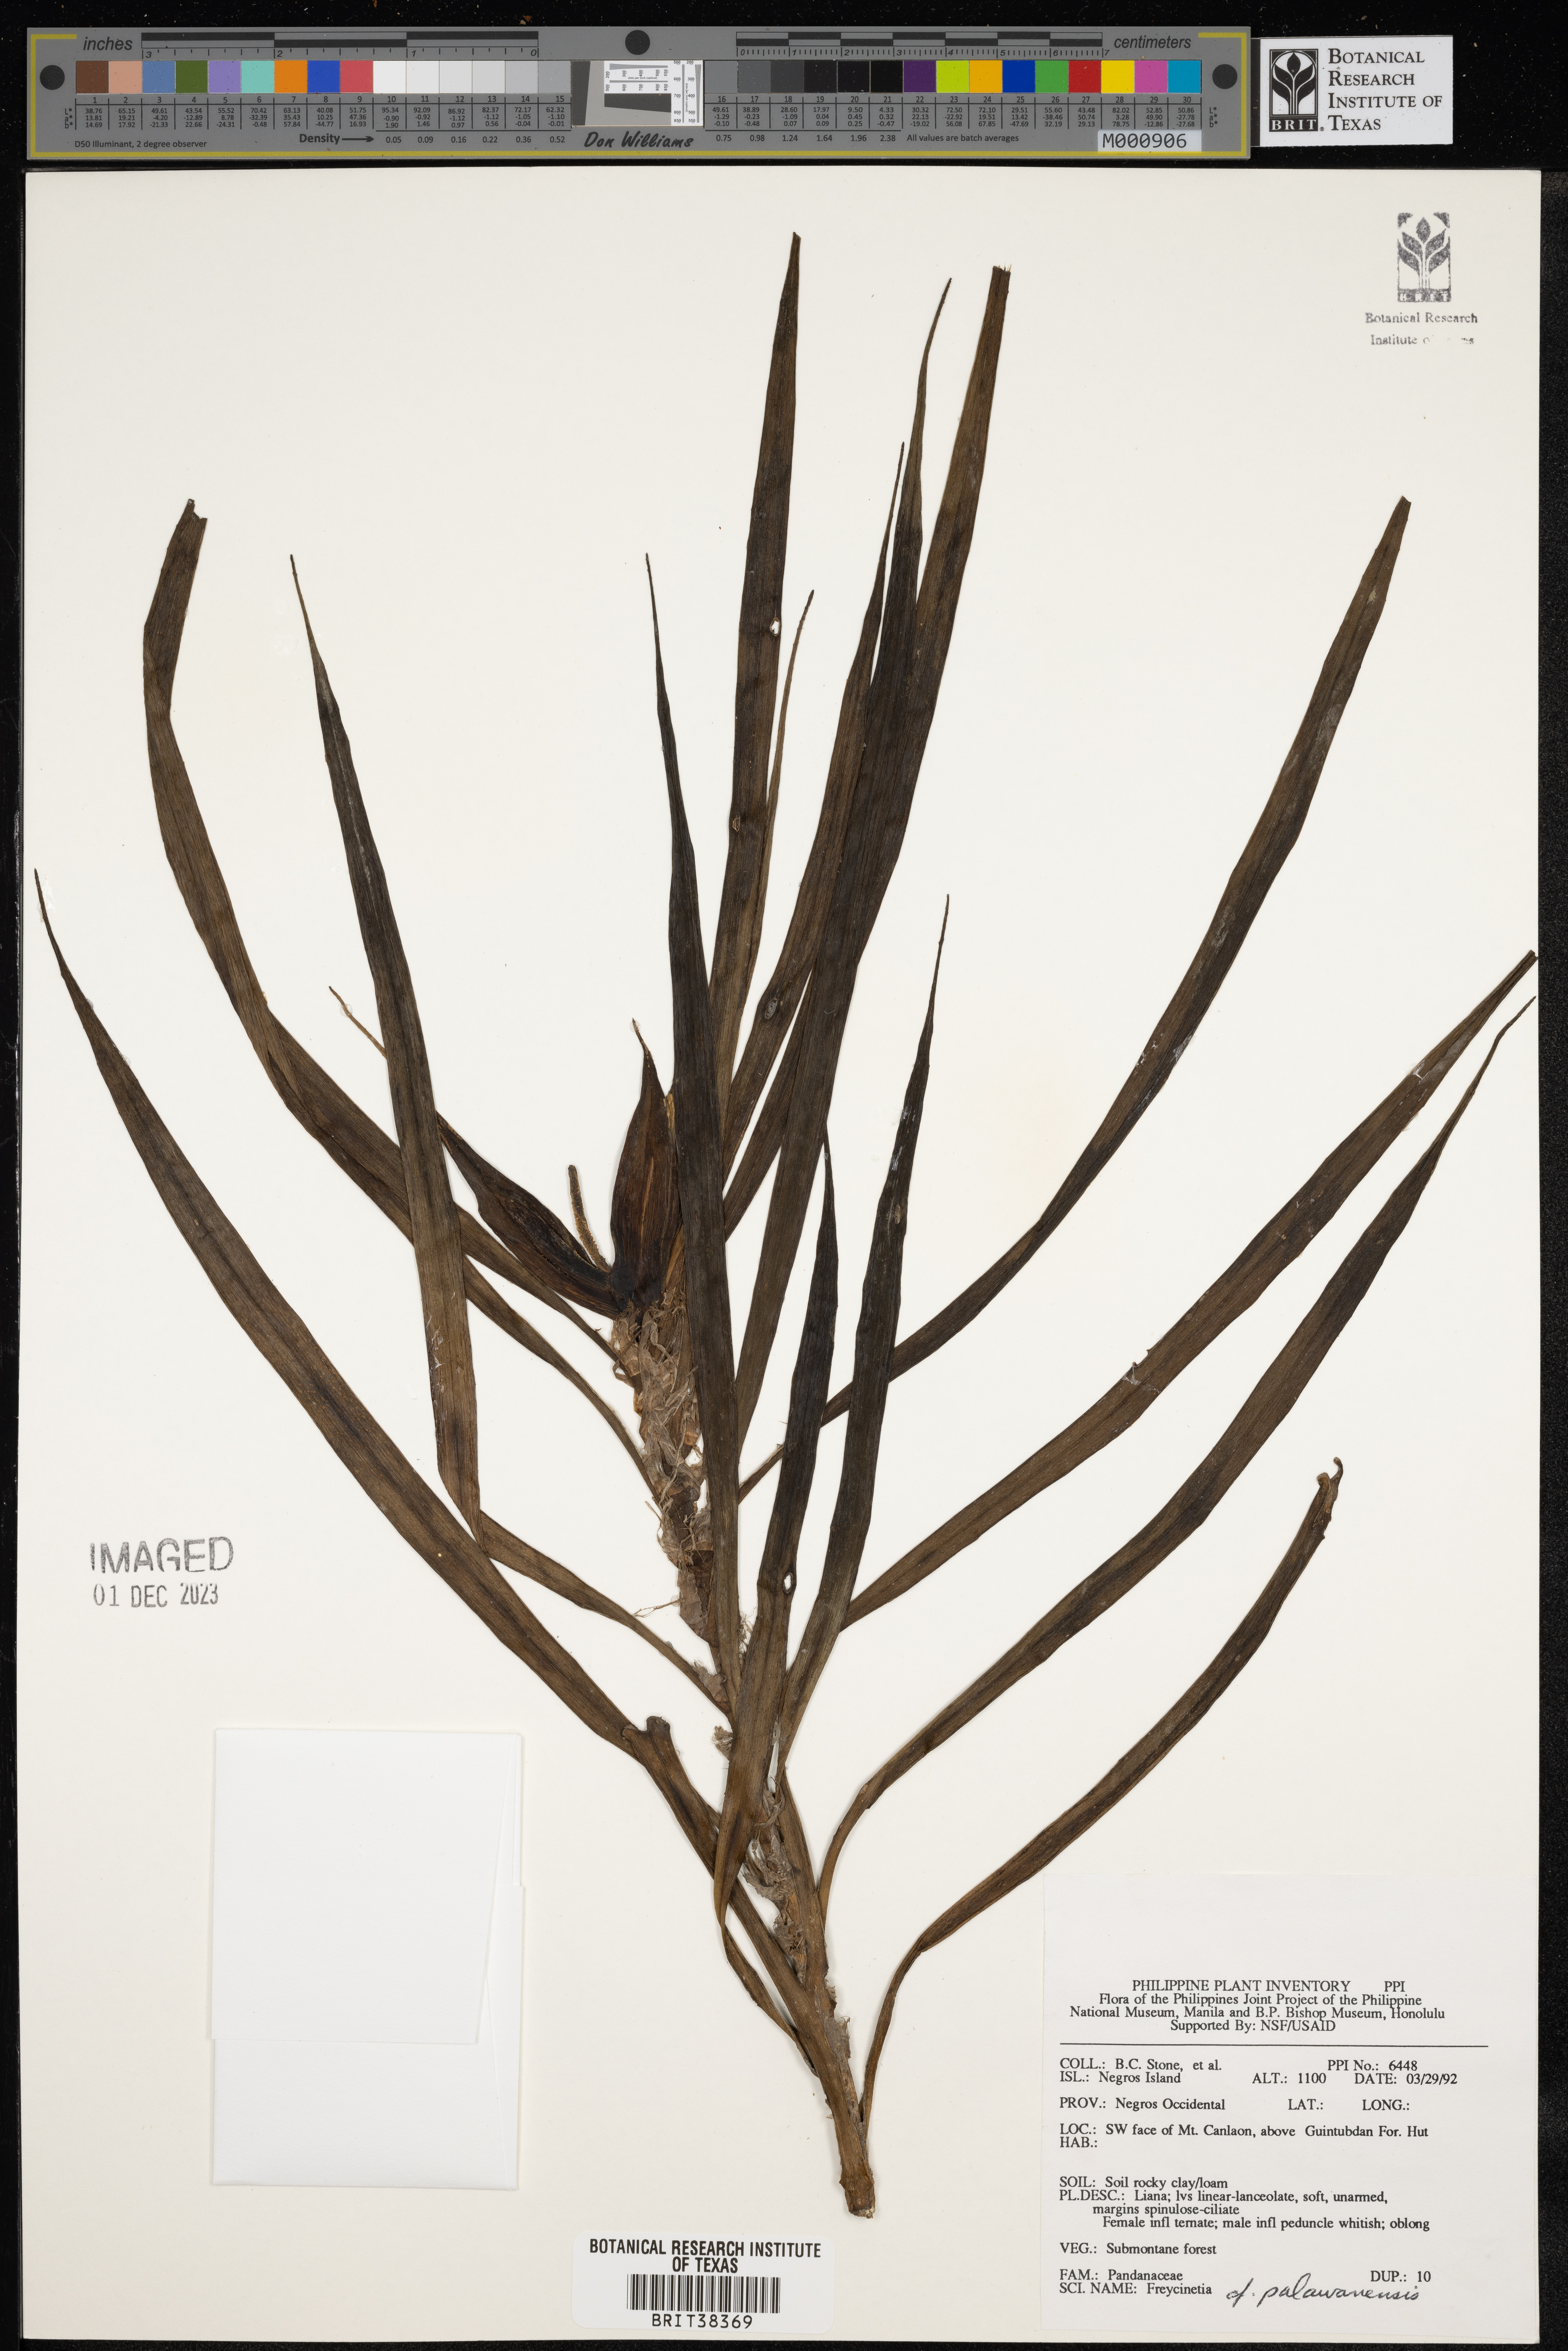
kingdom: Plantae
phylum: Tracheophyta
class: Liliopsida
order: Pandanales
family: Pandanaceae
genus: Freycinetia
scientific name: Freycinetia palawanensis
